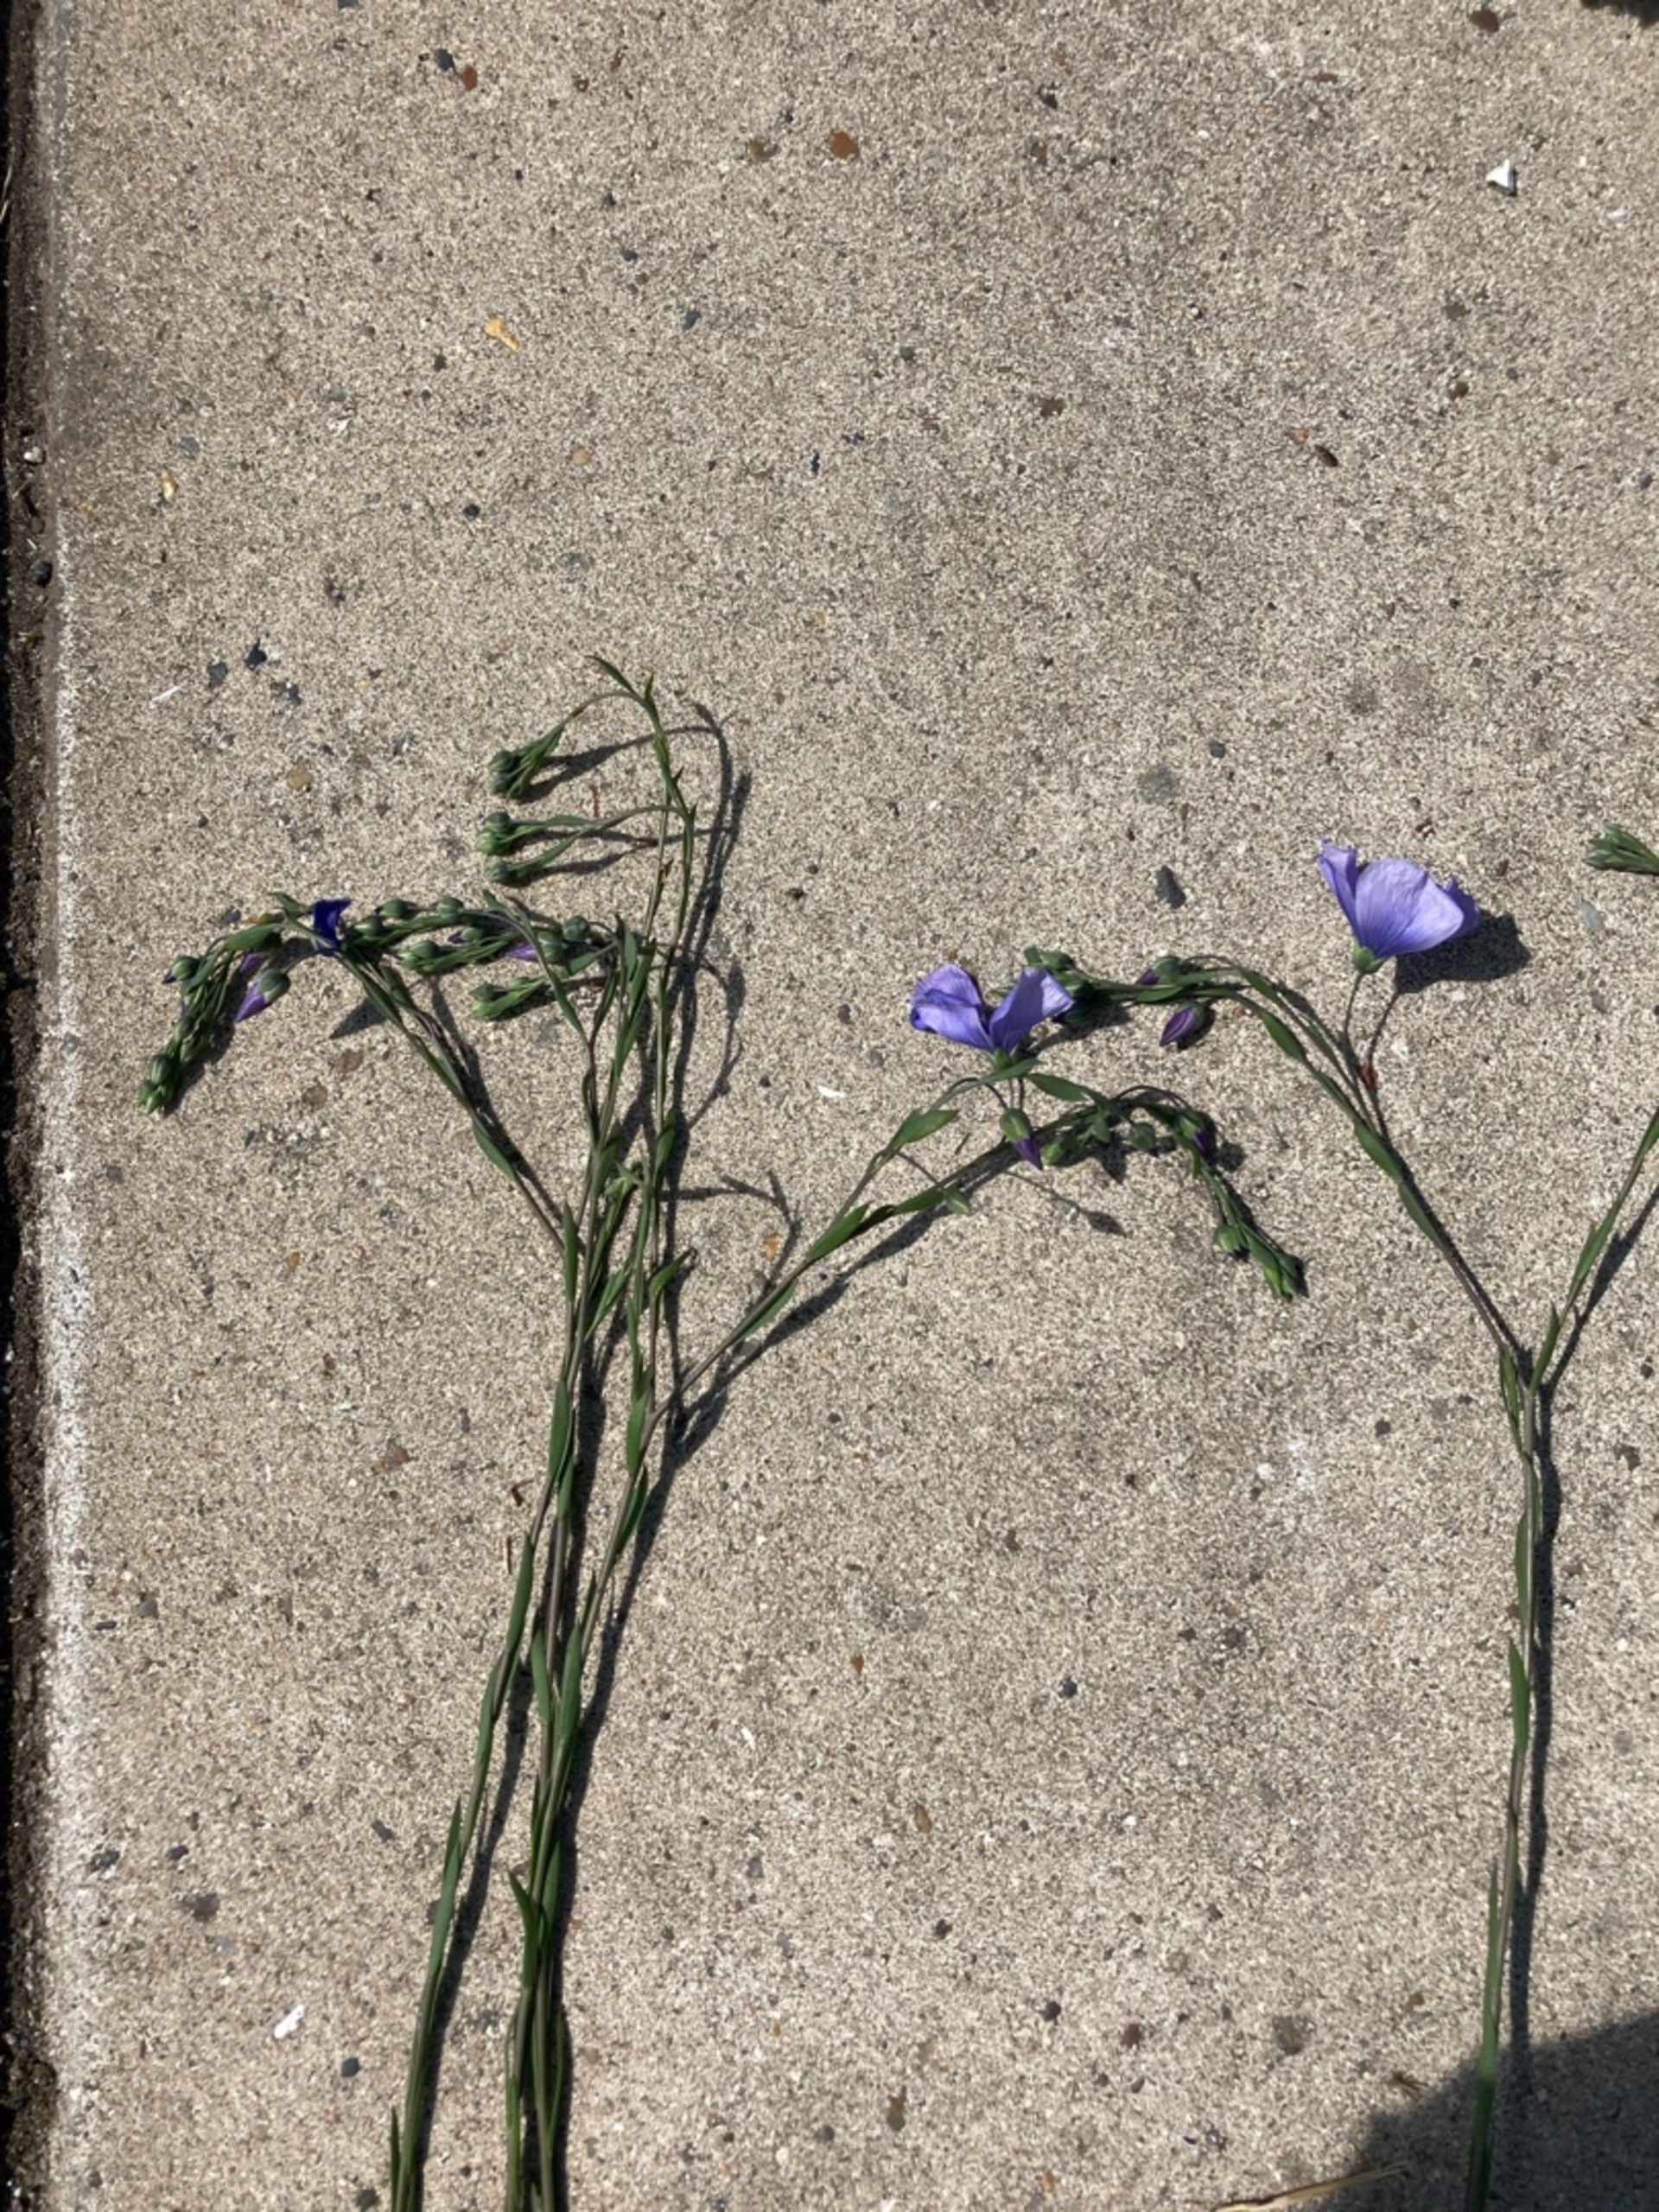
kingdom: Plantae
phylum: Tracheophyta
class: Magnoliopsida
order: Malpighiales
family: Linaceae
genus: Linum
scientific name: Linum austriacum
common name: Østrigsk hør
